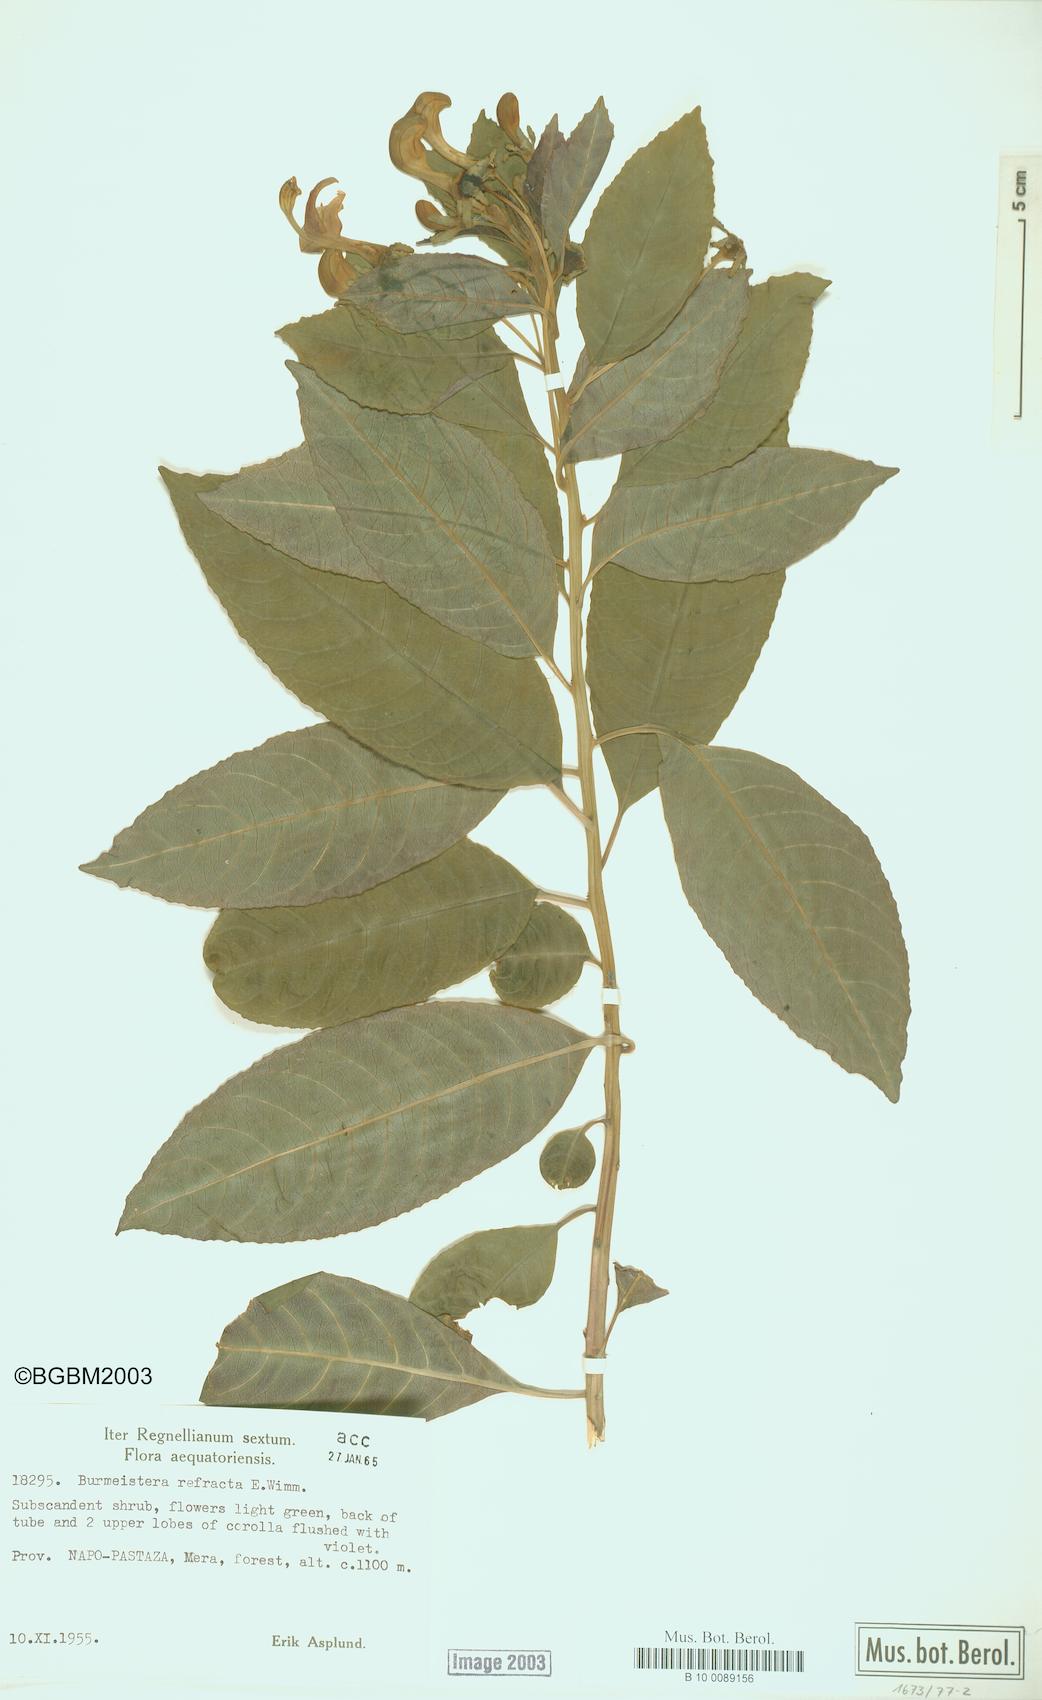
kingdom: Plantae
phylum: Tracheophyta
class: Magnoliopsida
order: Asterales
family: Campanulaceae
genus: Burmeistera
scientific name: Burmeistera refracta
